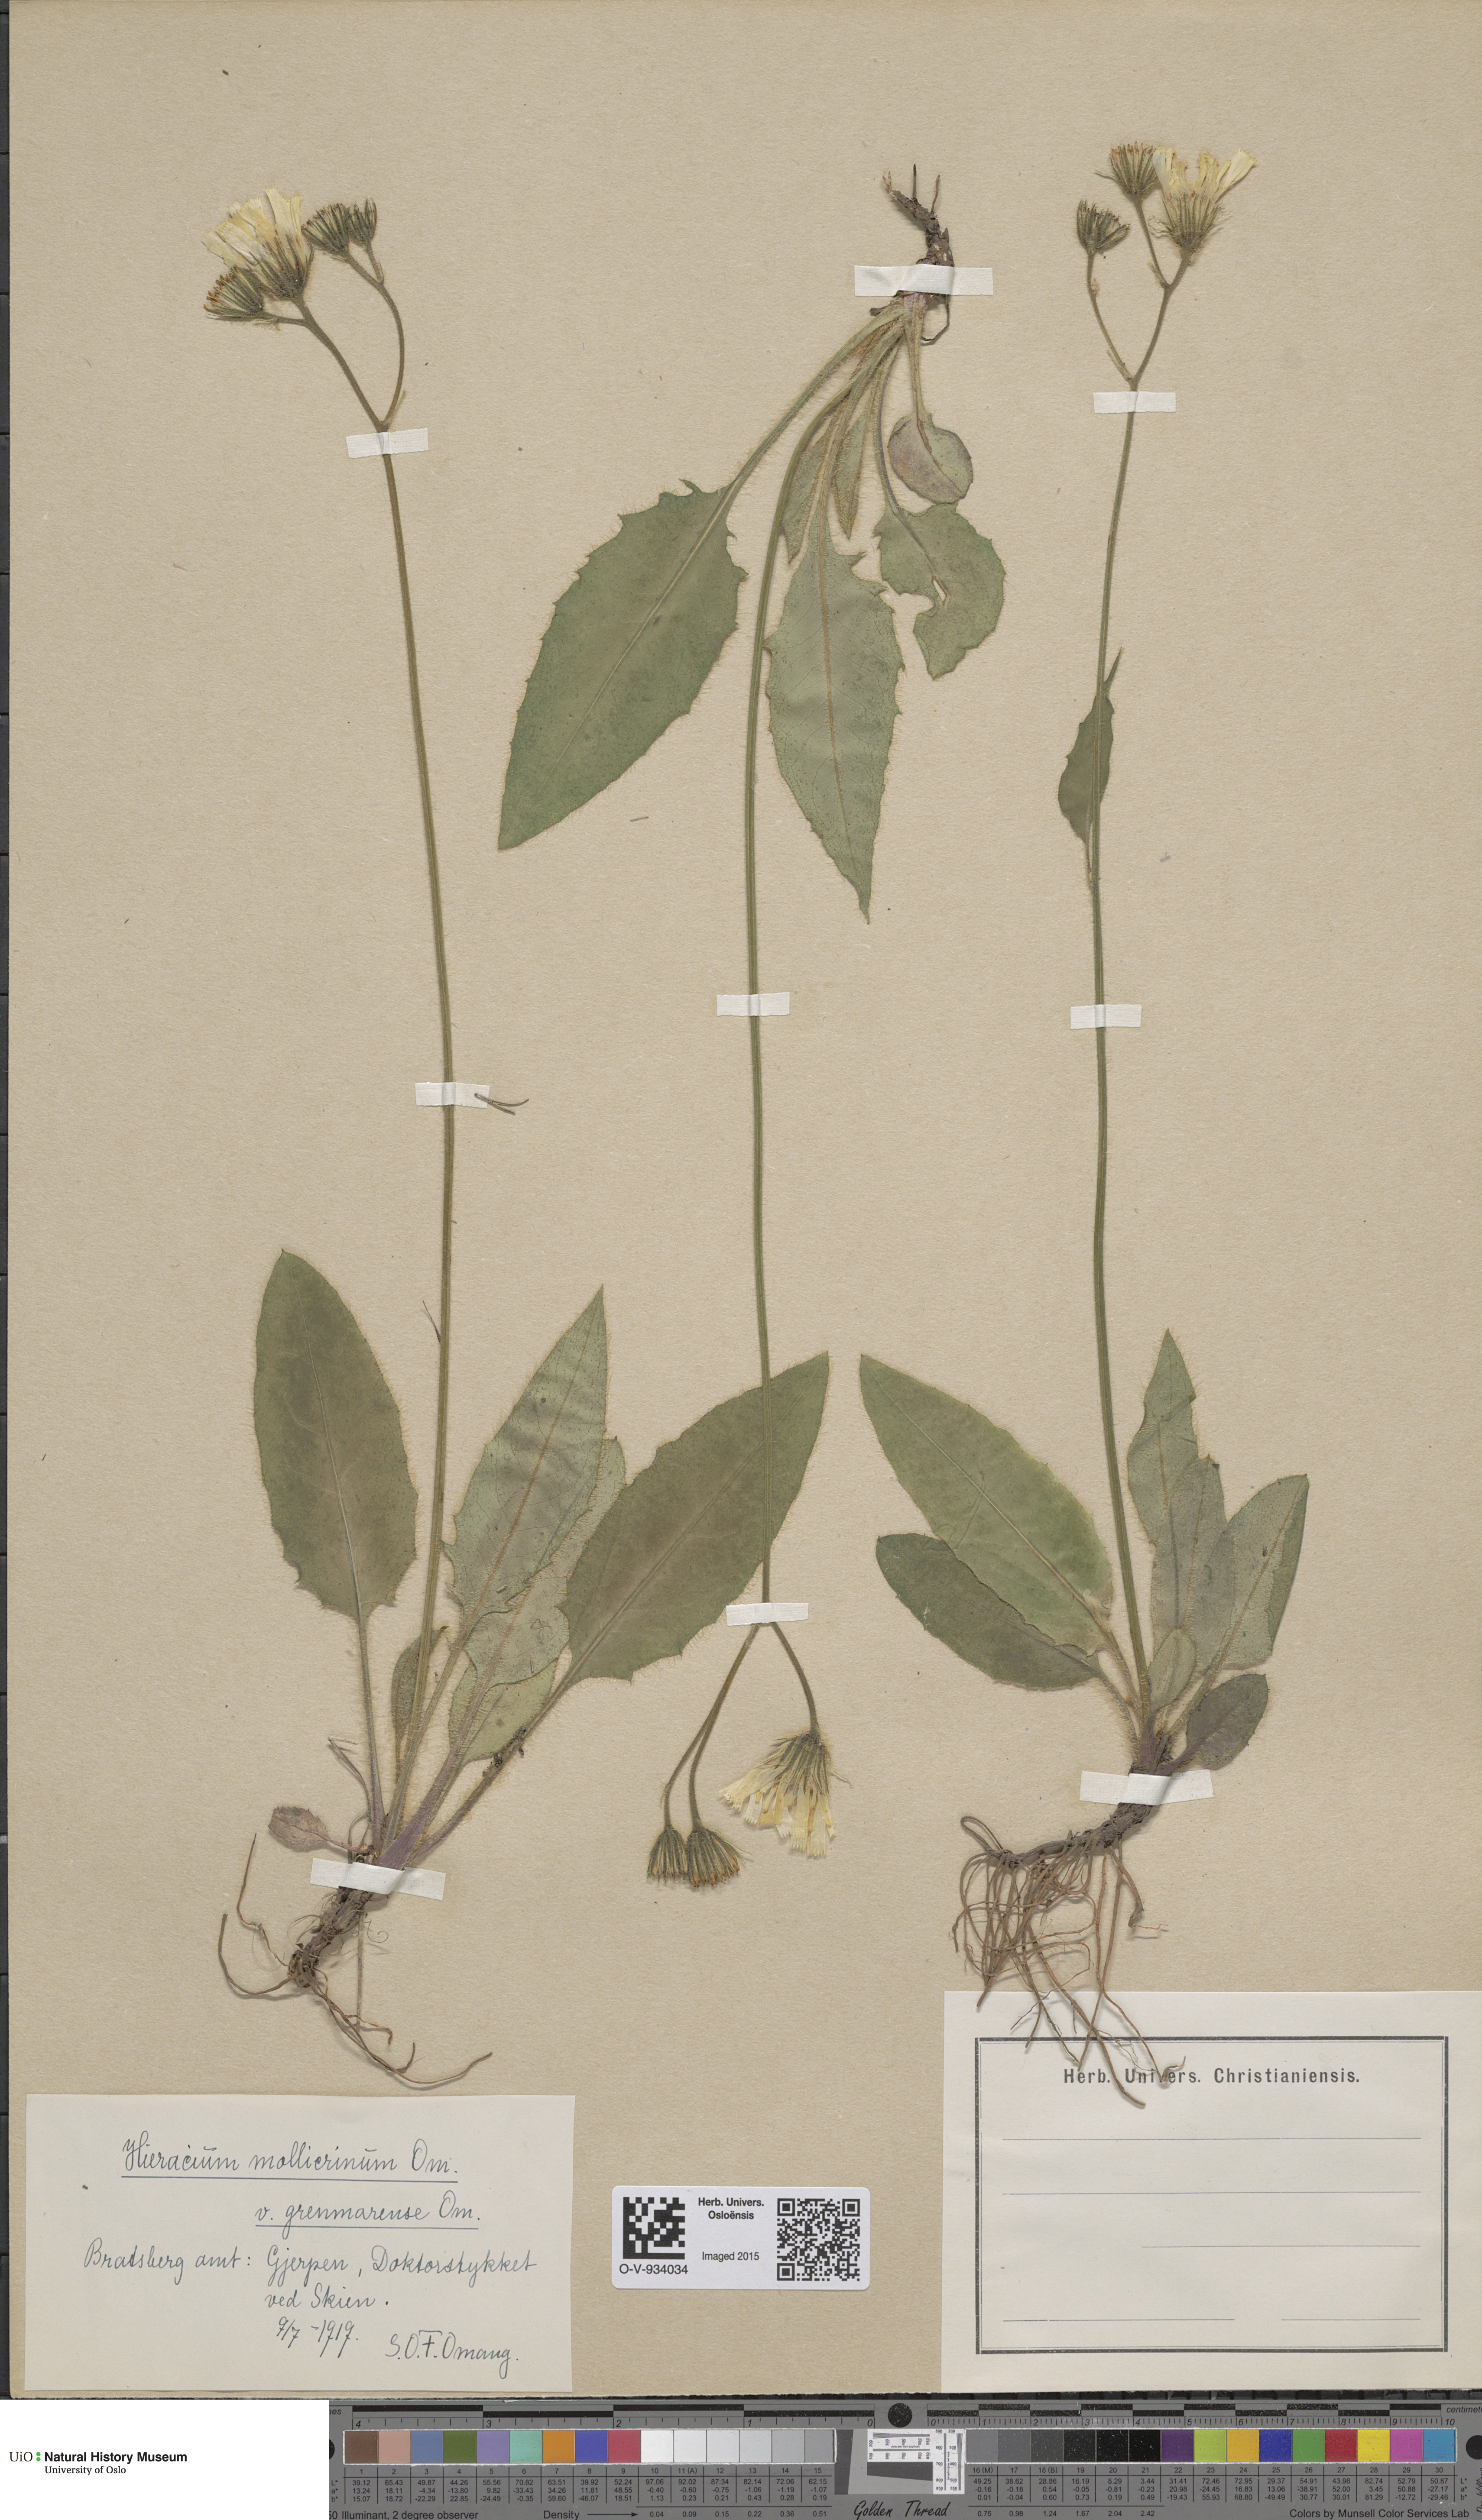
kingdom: Plantae
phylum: Tracheophyta
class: Magnoliopsida
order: Asterales
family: Asteraceae
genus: Hieracium
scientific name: Hieracium schmidtii
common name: Schmidt's hawkweed
